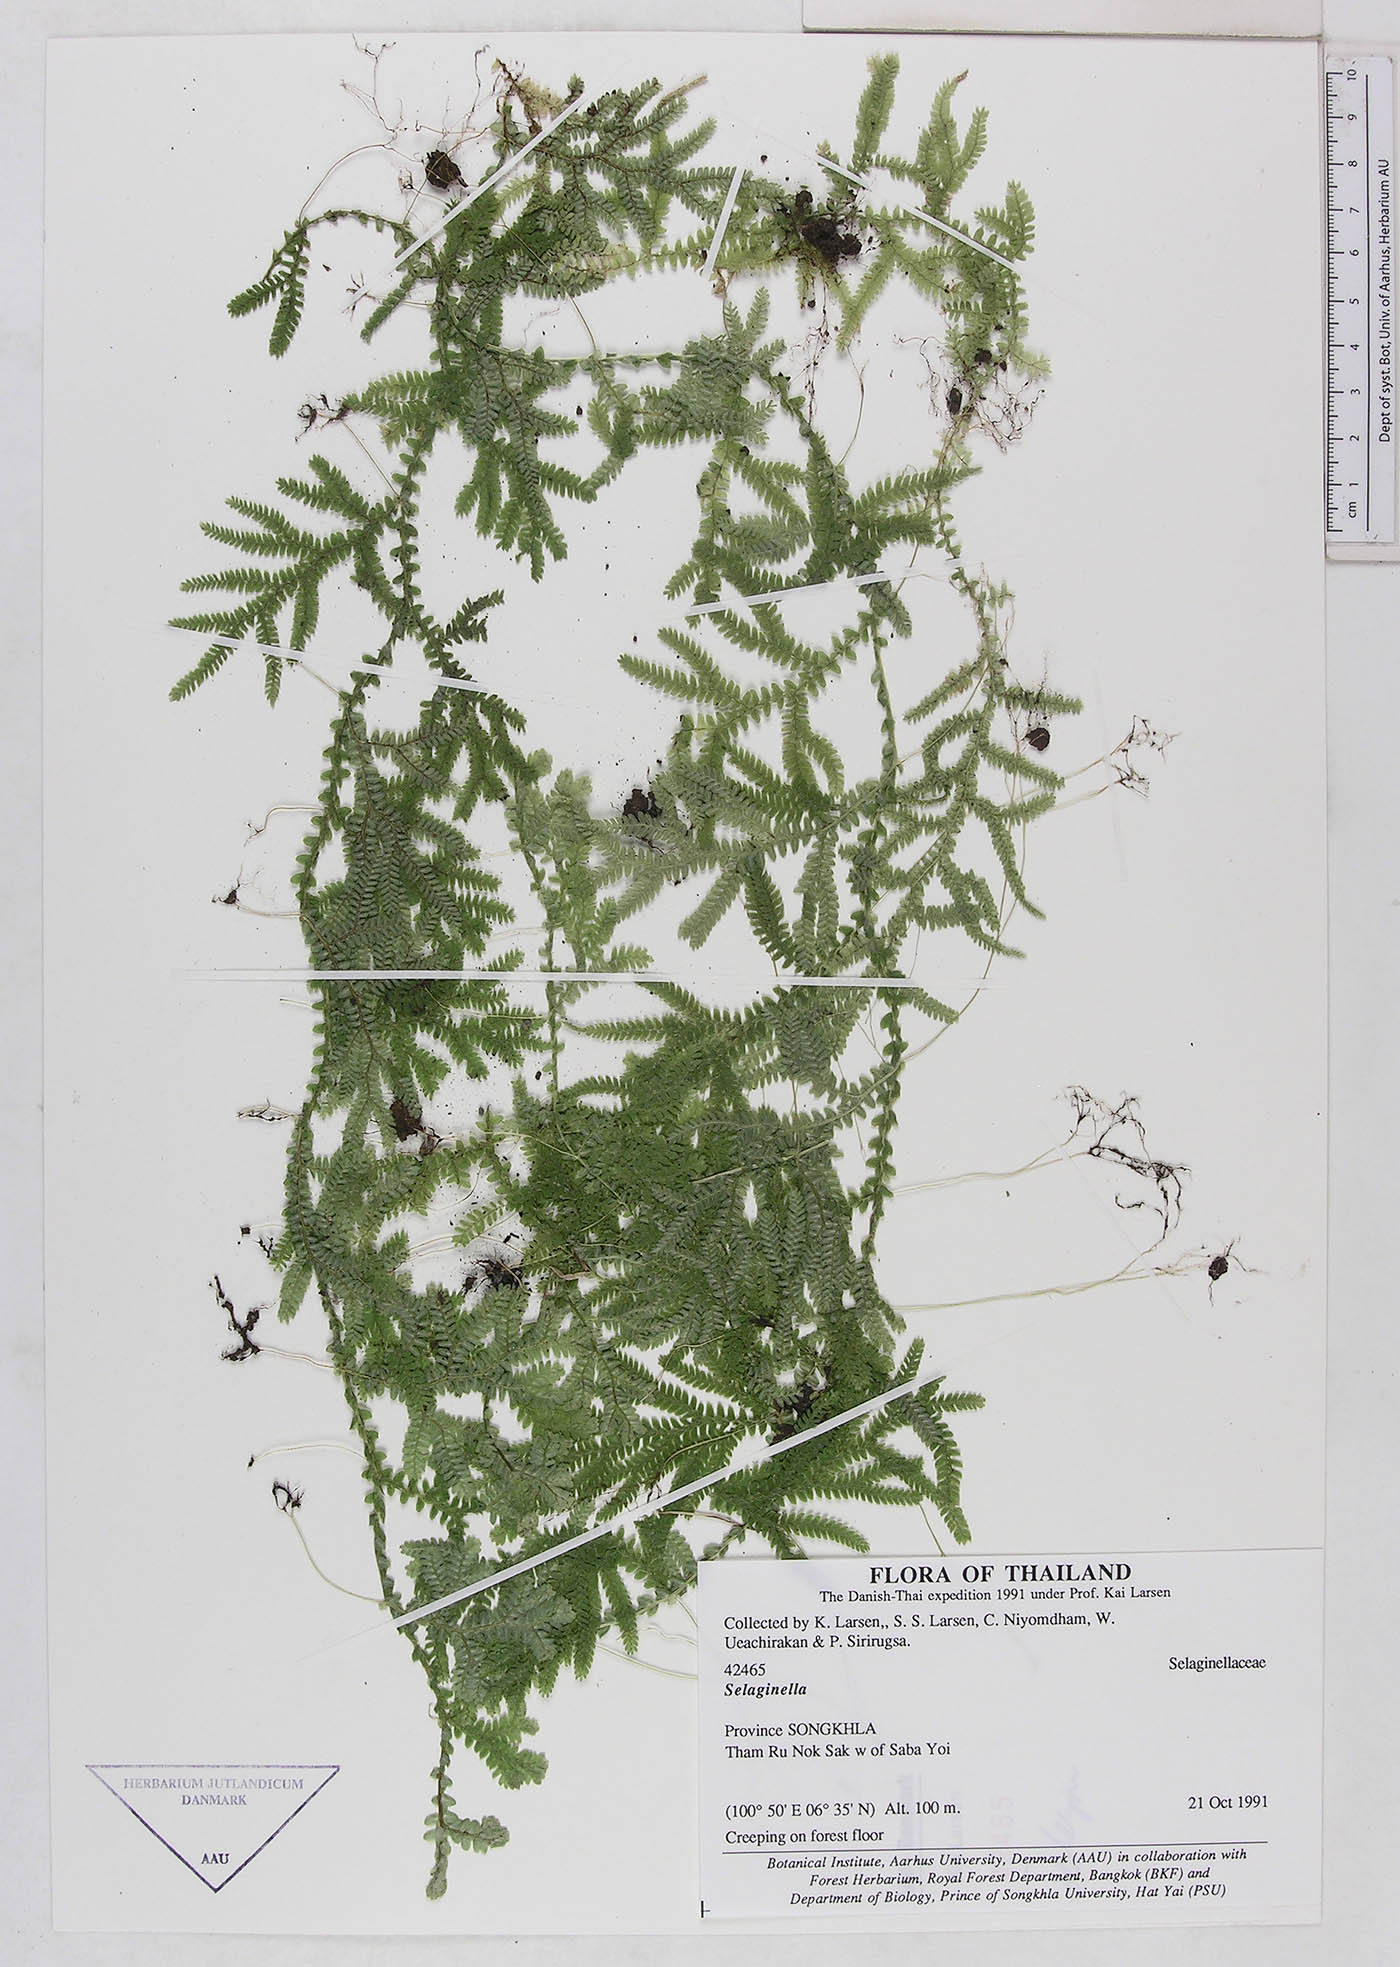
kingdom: Plantae
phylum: Tracheophyta
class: Lycopodiopsida
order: Selaginellales
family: Selaginellaceae
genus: Selaginella
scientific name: Selaginella
